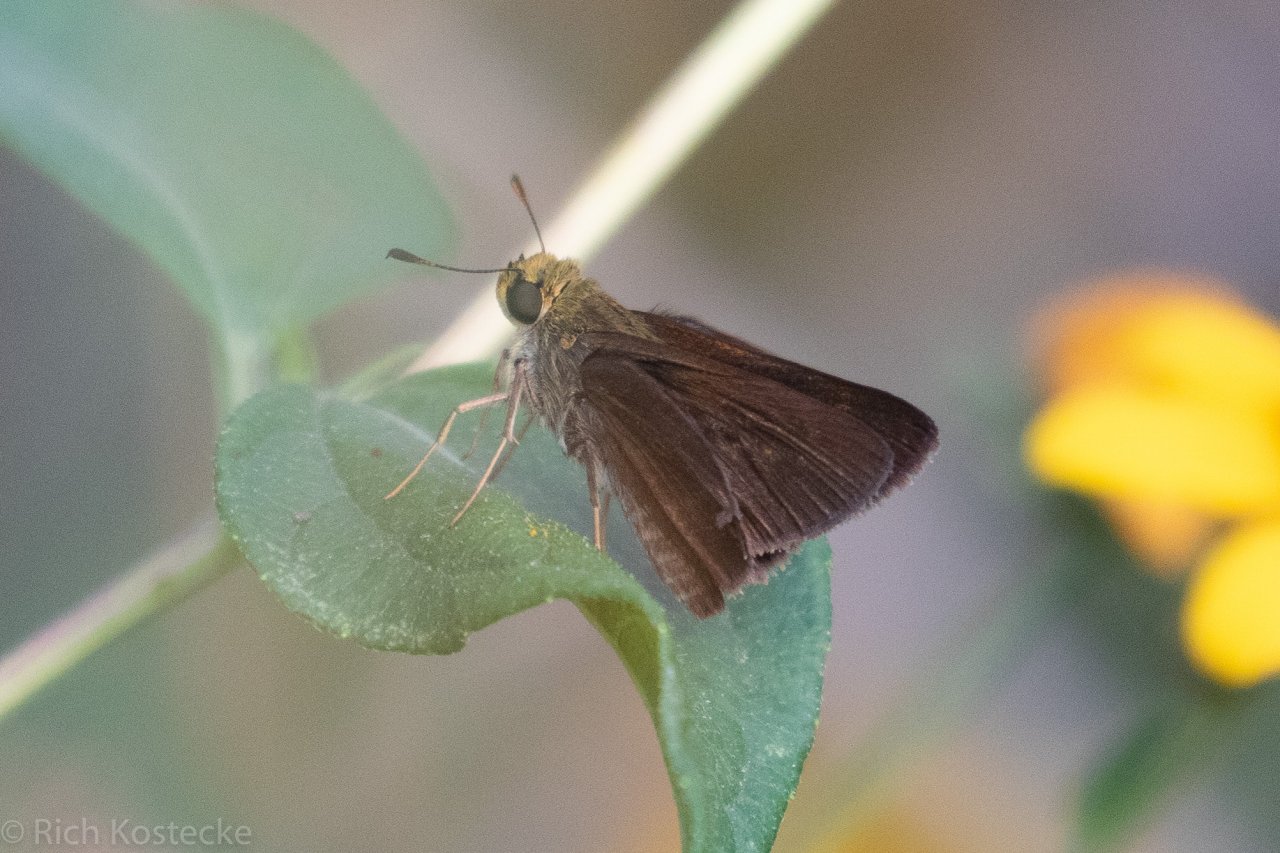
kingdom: Animalia
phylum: Arthropoda
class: Insecta
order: Lepidoptera
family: Hesperiidae
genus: Euphyes
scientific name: Euphyes vestris
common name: Dun Skipper
